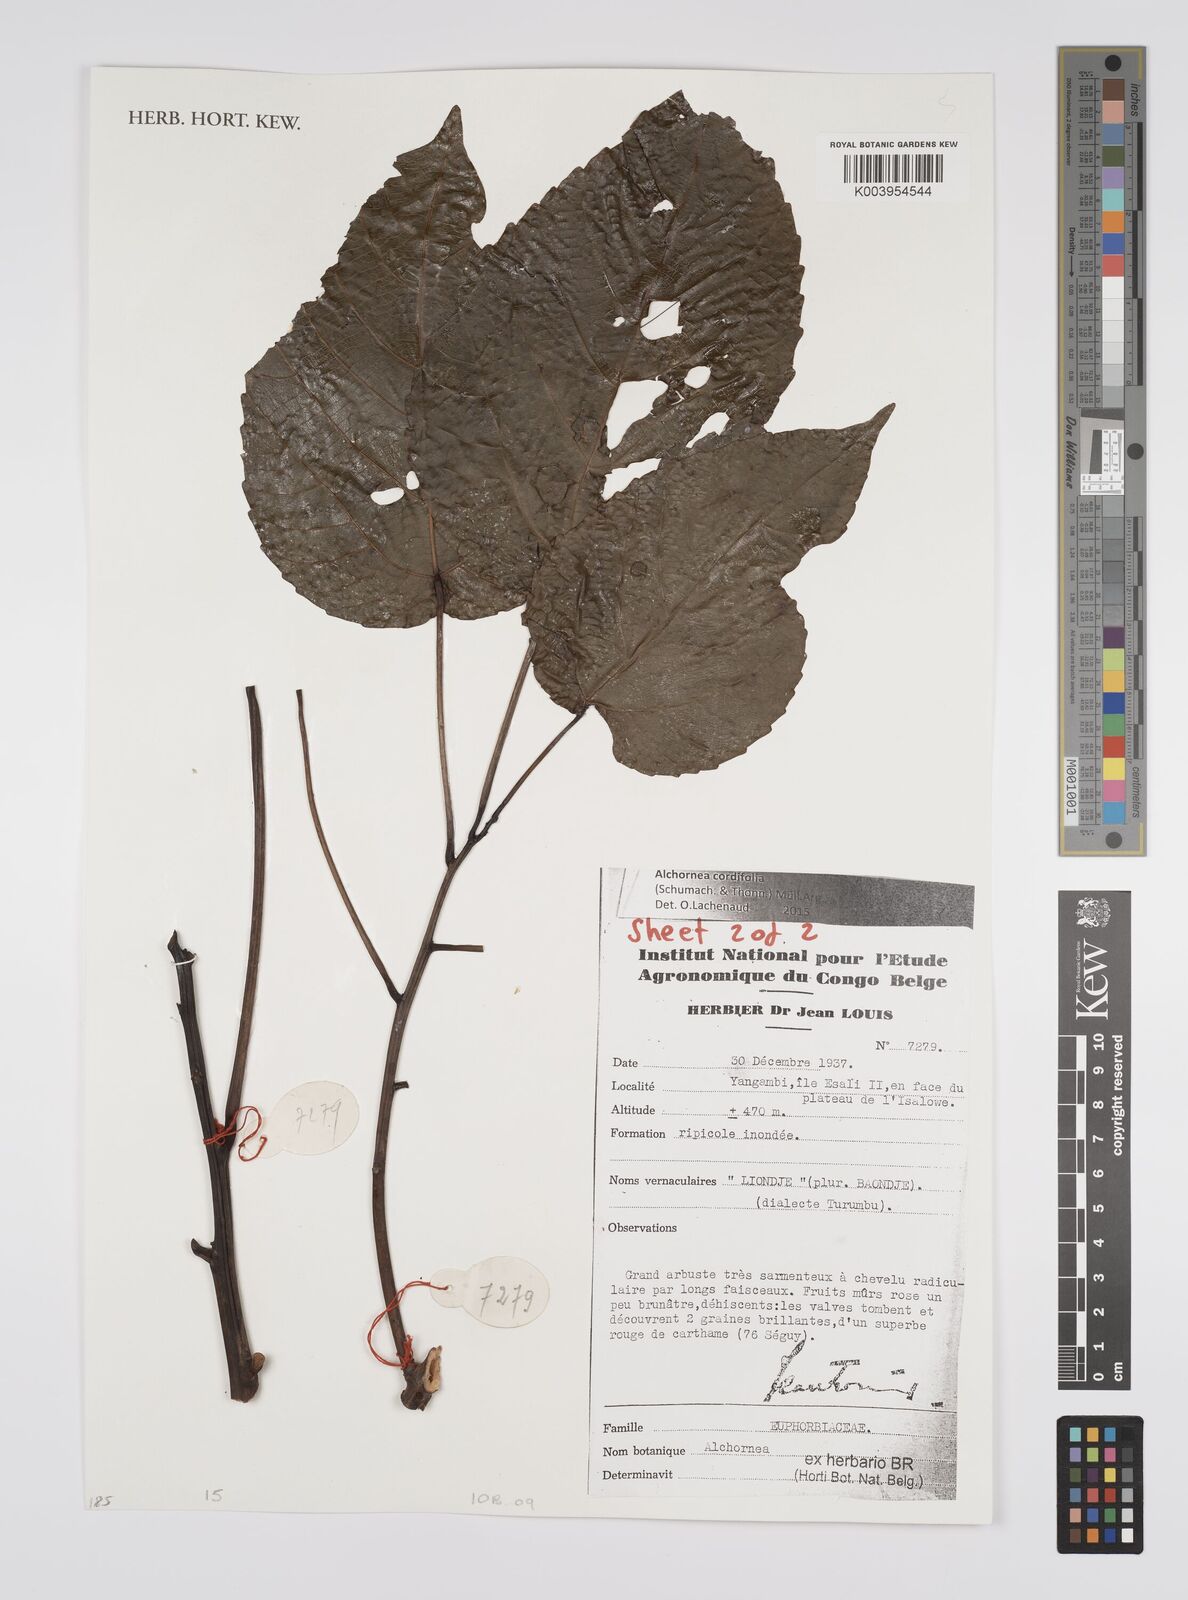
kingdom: Plantae
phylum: Tracheophyta
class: Magnoliopsida
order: Malpighiales
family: Euphorbiaceae
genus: Alchornea
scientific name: Alchornea cordifolia
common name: Christmasbush
